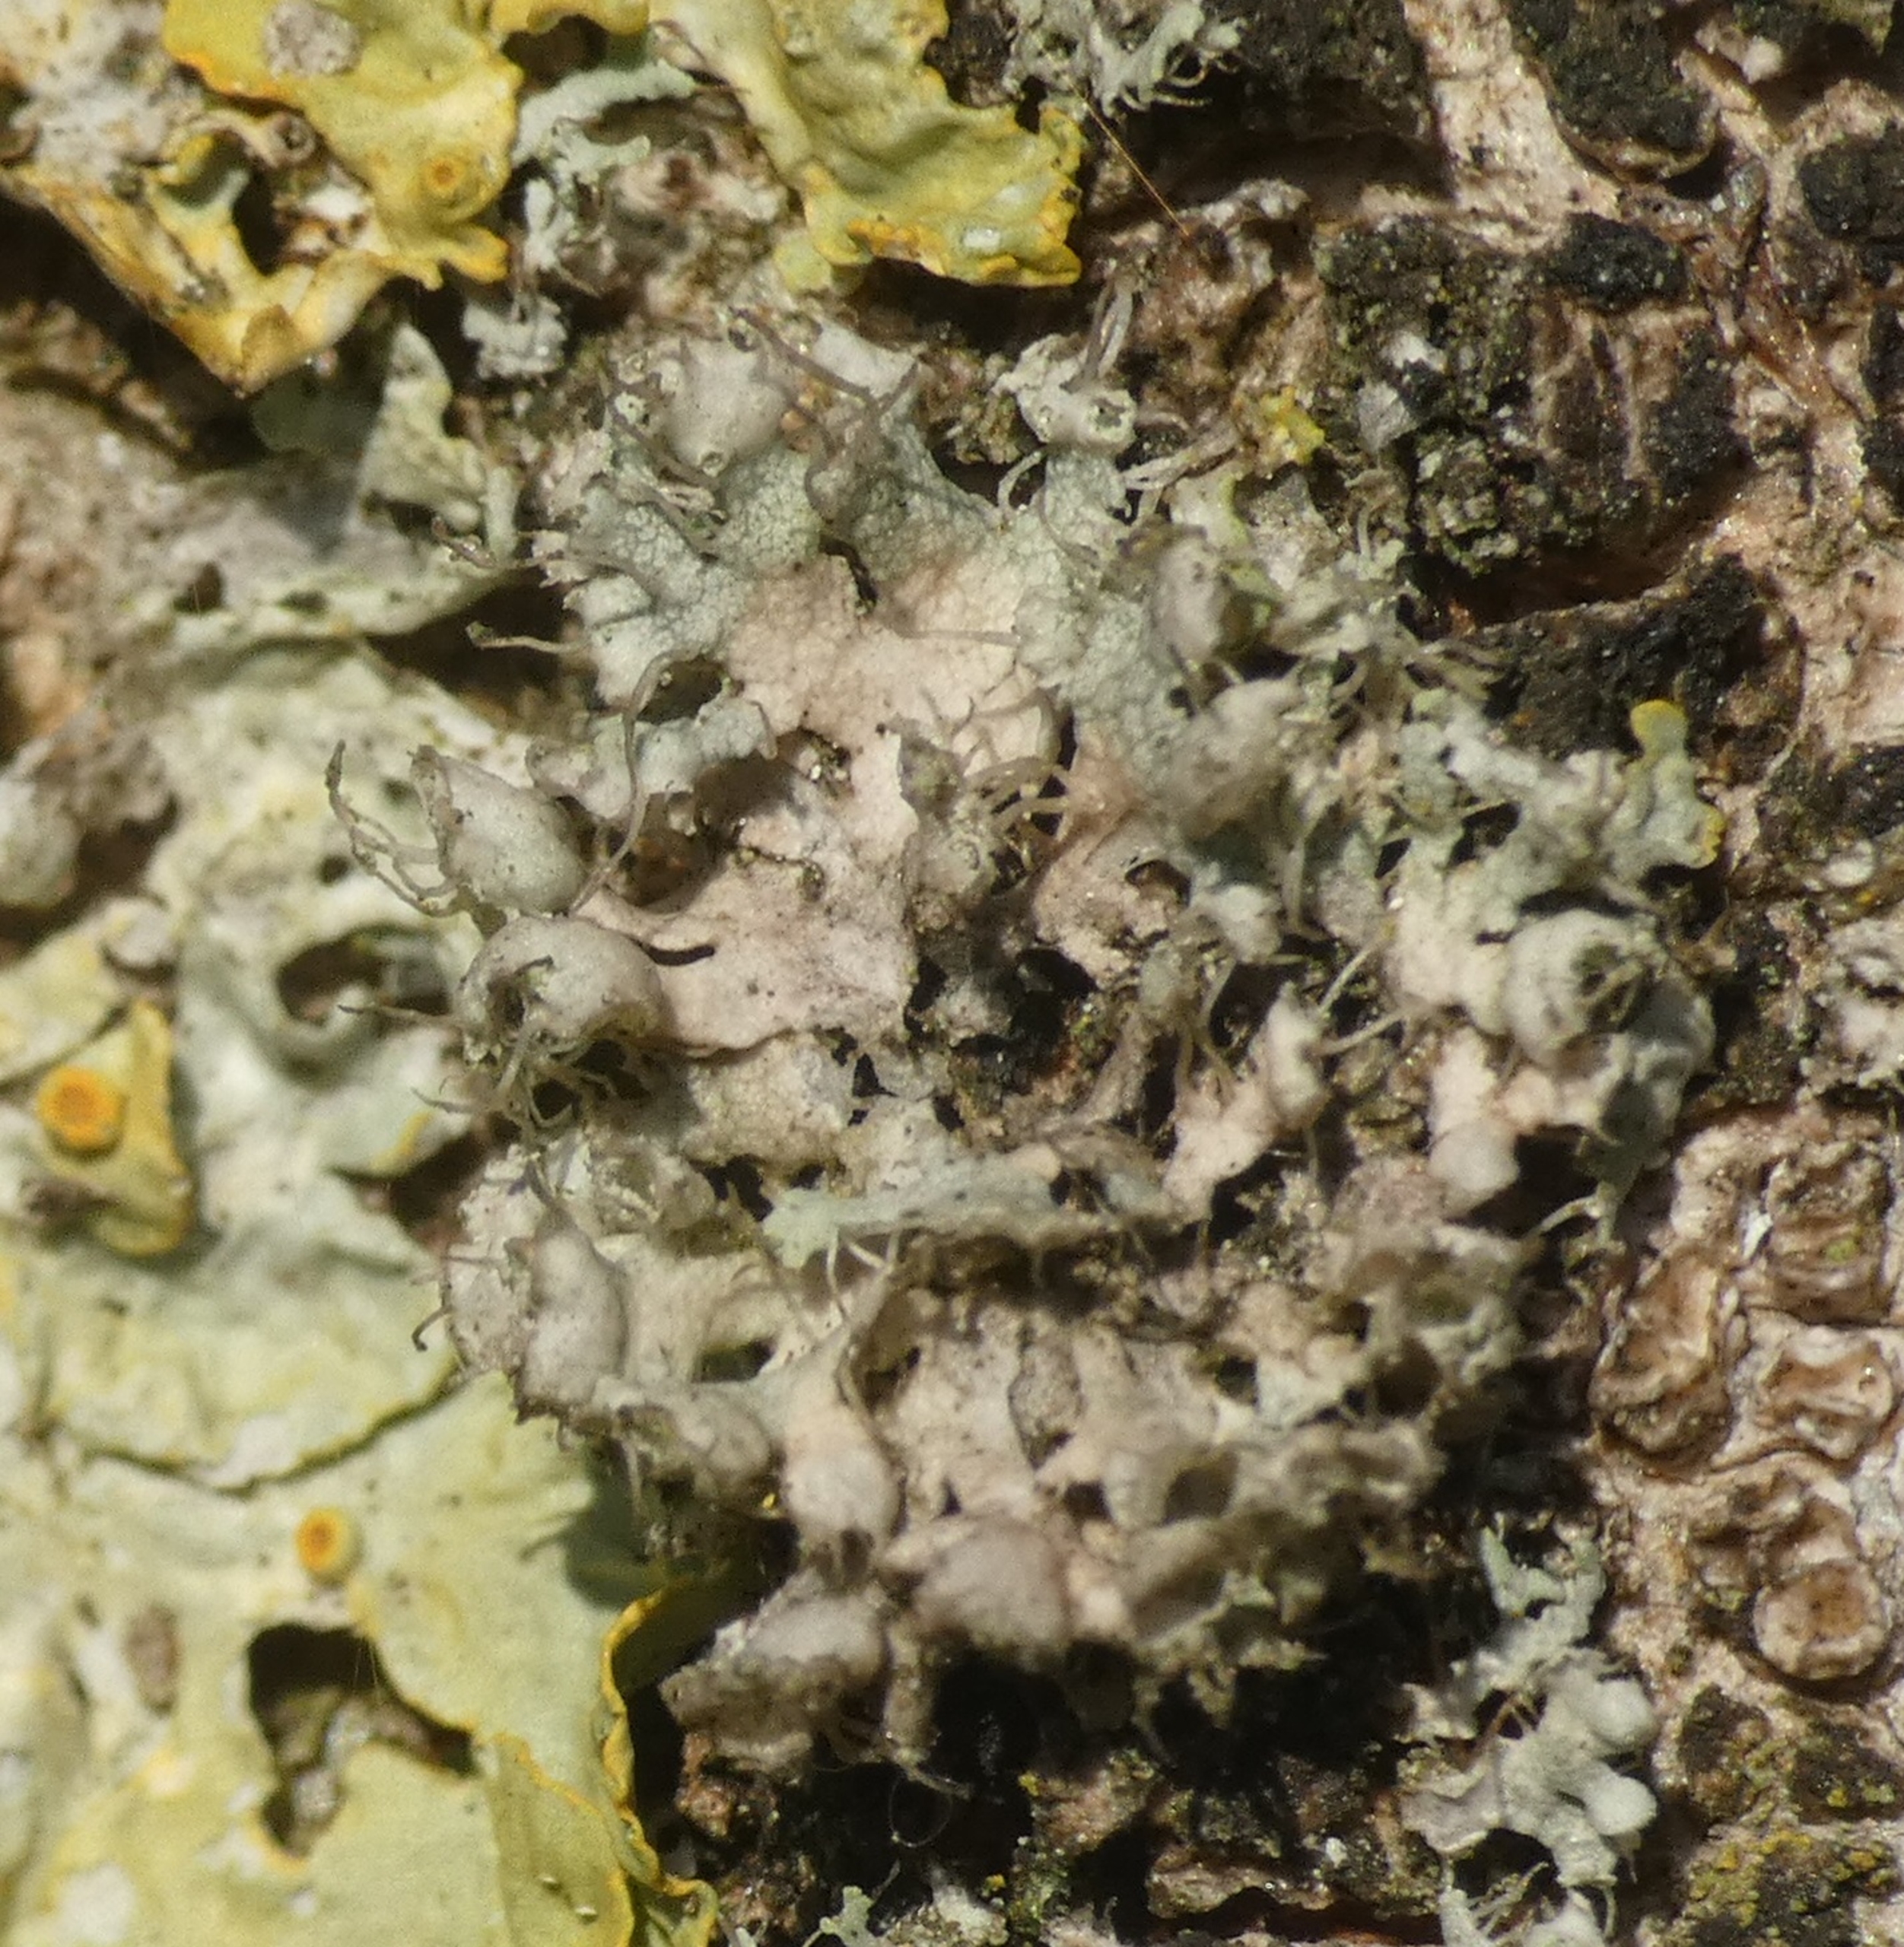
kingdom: Fungi
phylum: Ascomycota
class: Lecanoromycetes
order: Caliciales
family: Physciaceae
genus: Physcia
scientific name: Physcia adscendens
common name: Hætte-rosetlav
